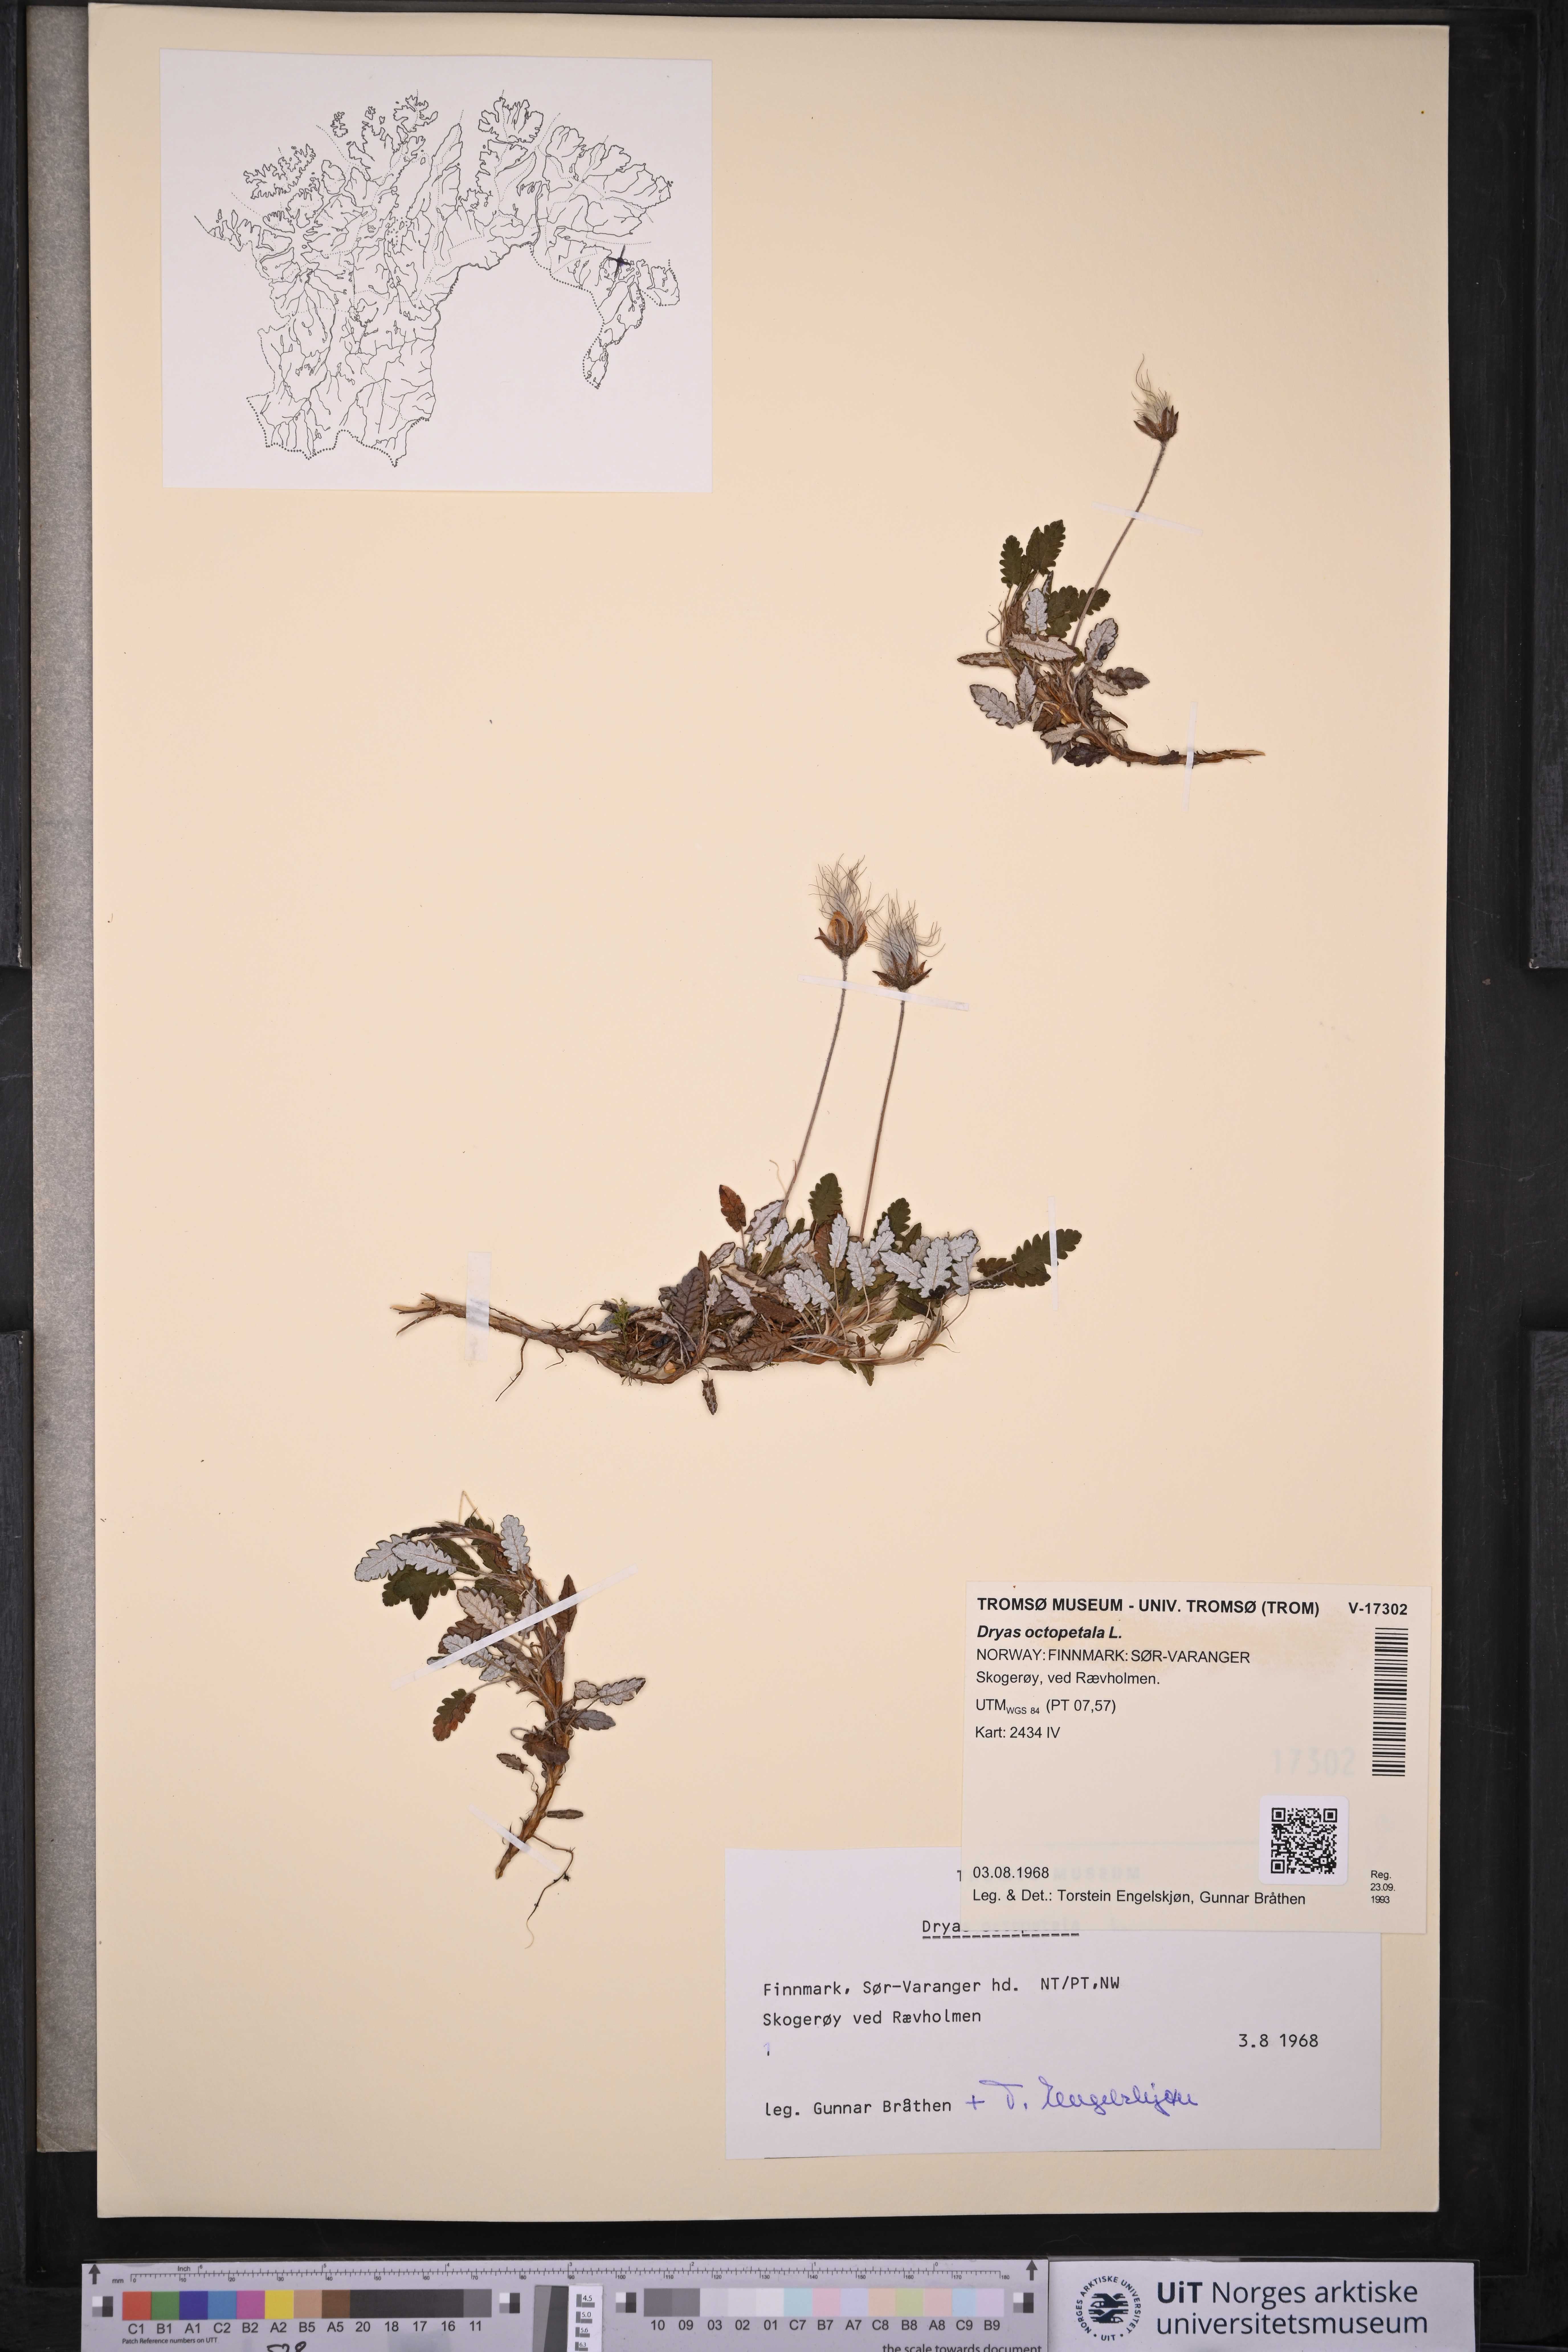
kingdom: Plantae
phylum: Tracheophyta
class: Magnoliopsida
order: Rosales
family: Rosaceae
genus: Dryas
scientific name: Dryas octopetala
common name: Eight-petal mountain-avens
